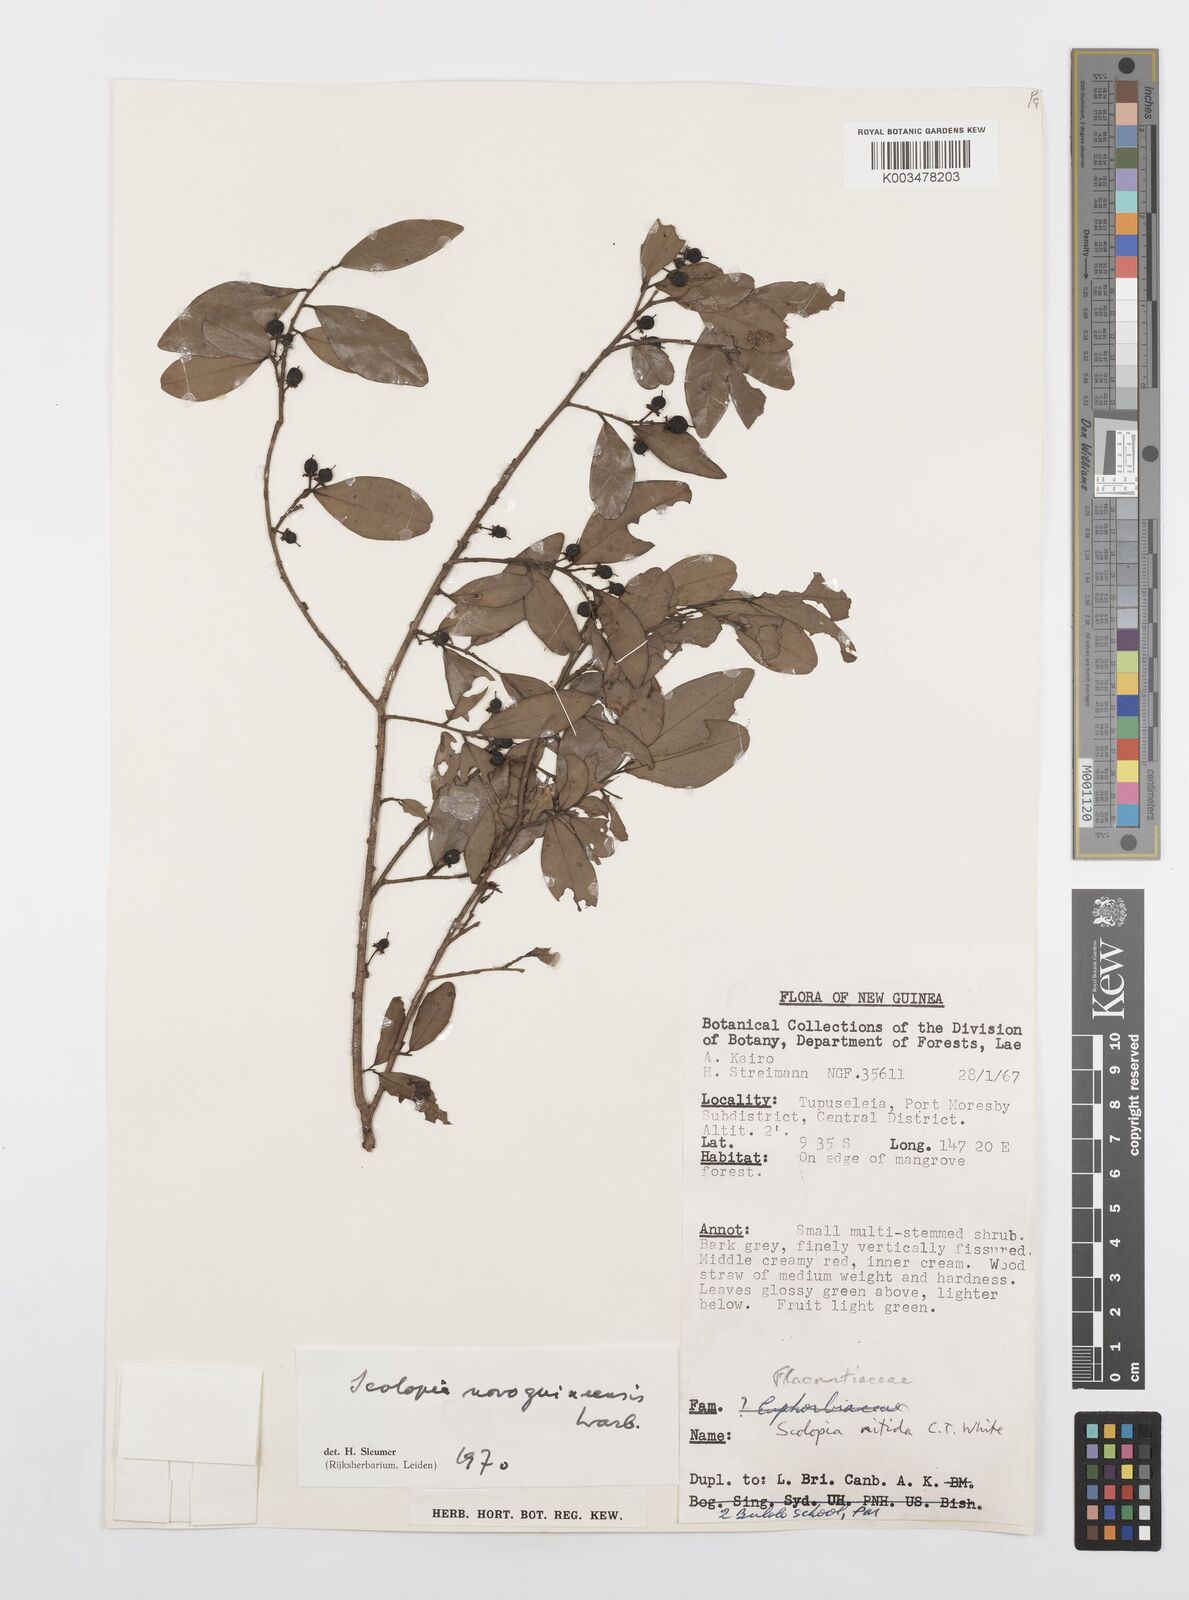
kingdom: Plantae
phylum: Tracheophyta
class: Magnoliopsida
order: Malpighiales
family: Salicaceae
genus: Scolopia
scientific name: Scolopia novoguineensis
